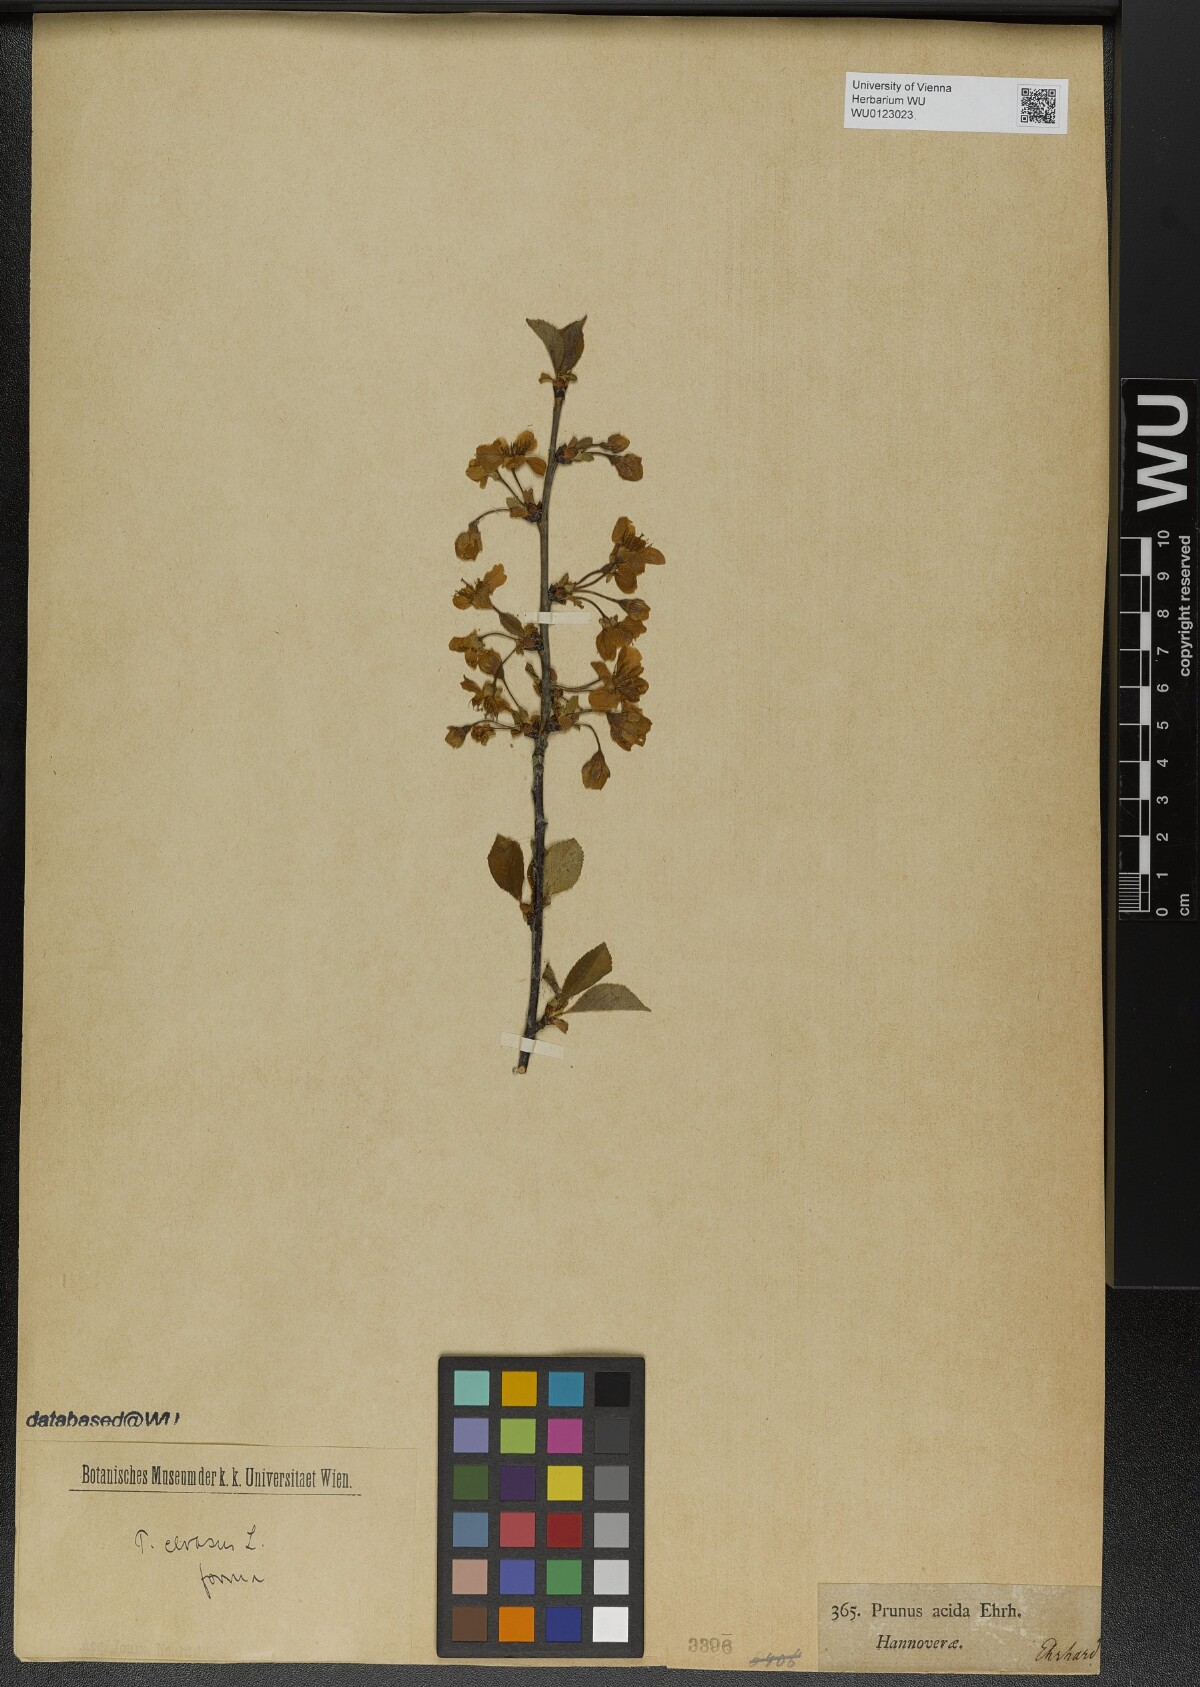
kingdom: Plantae
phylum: Tracheophyta
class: Magnoliopsida
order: Rosales
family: Rosaceae
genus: Prunus
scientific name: Prunus cerasus
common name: Morello cherry
